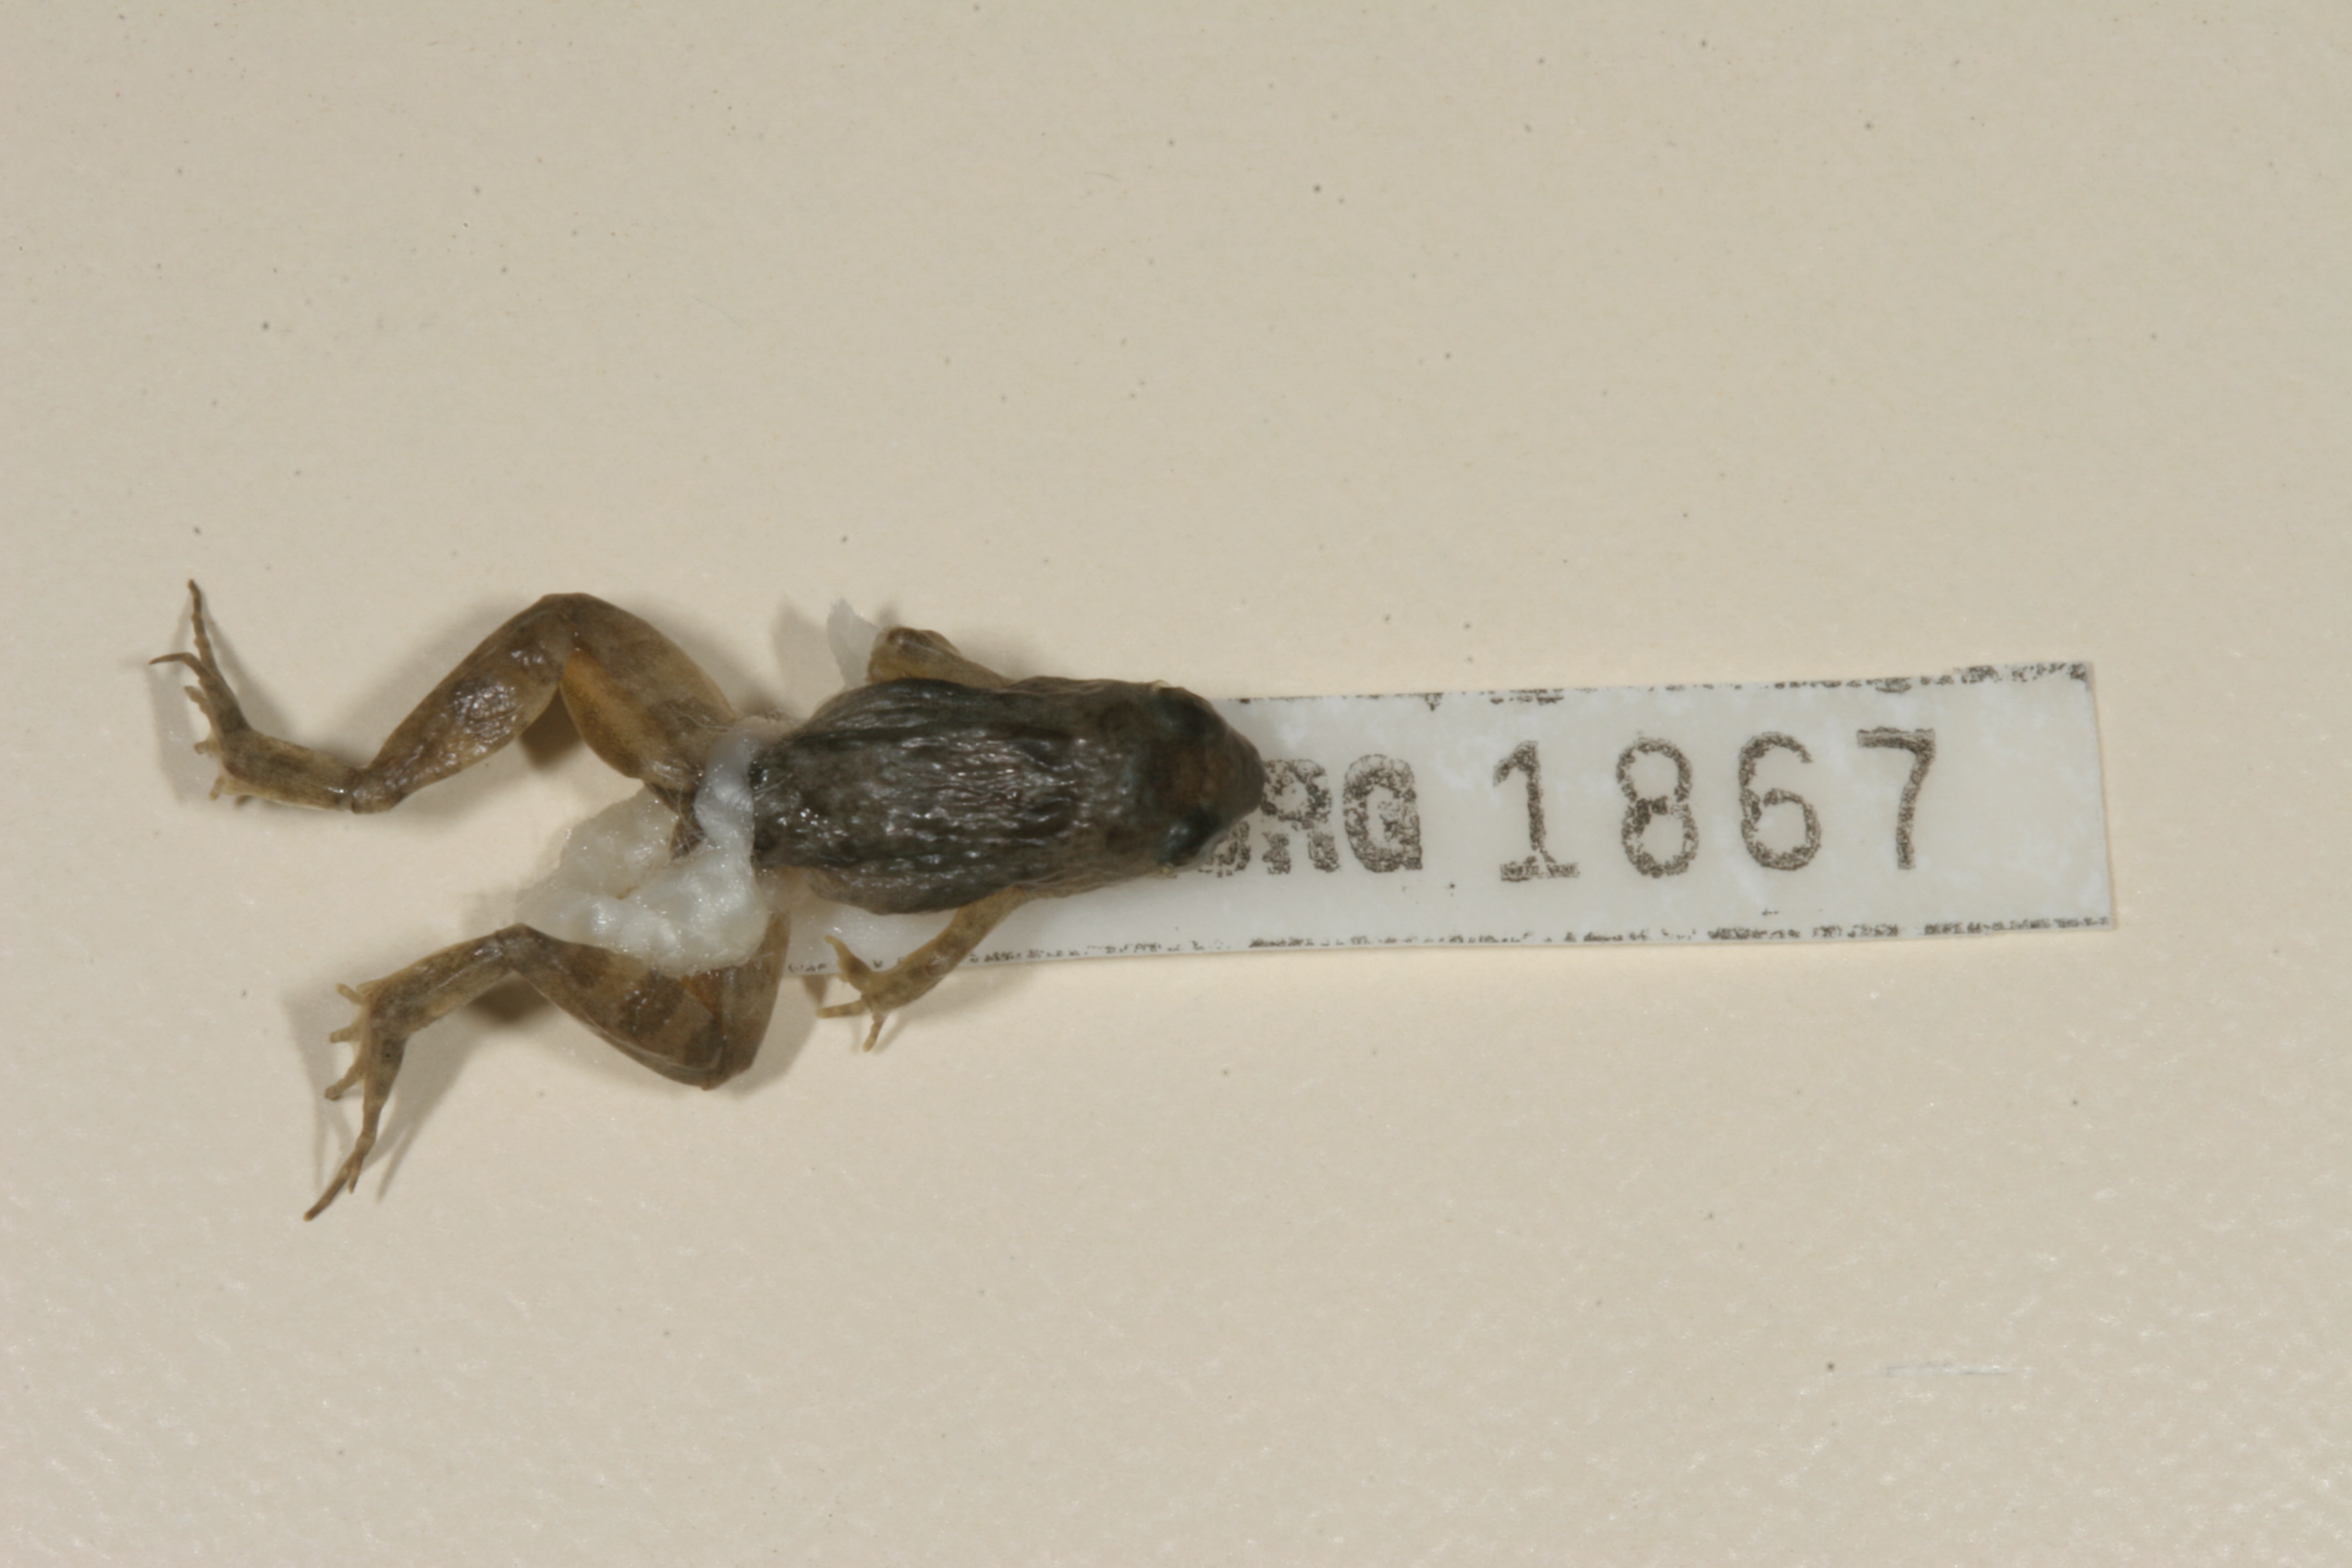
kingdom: Animalia
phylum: Chordata
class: Amphibia
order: Anura
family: Phrynobatrachidae
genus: Phrynobatrachus
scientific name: Phrynobatrachus mababiensis
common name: Dwarf puddle frog
